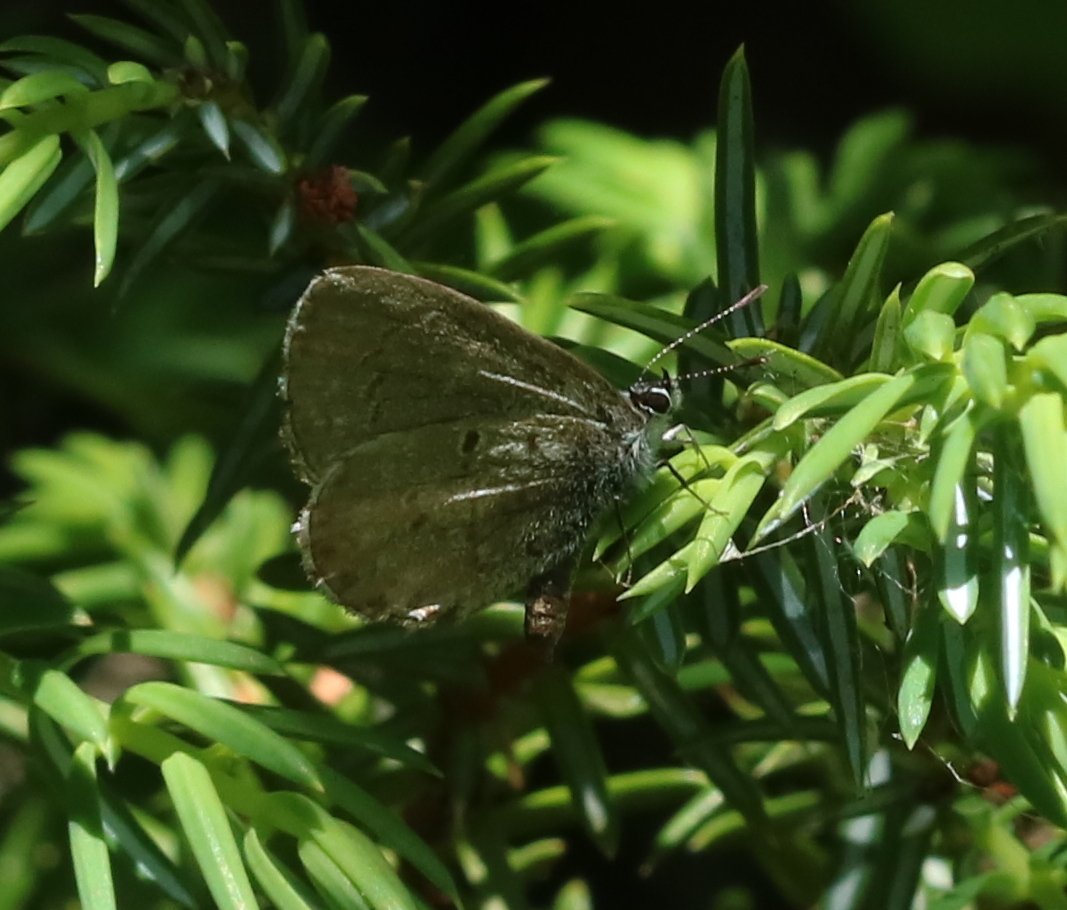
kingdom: Animalia
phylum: Arthropoda
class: Insecta
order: Lepidoptera
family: Lycaenidae
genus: Glaucopsyche
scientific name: Glaucopsyche lygdamus
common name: Silvery Blue
